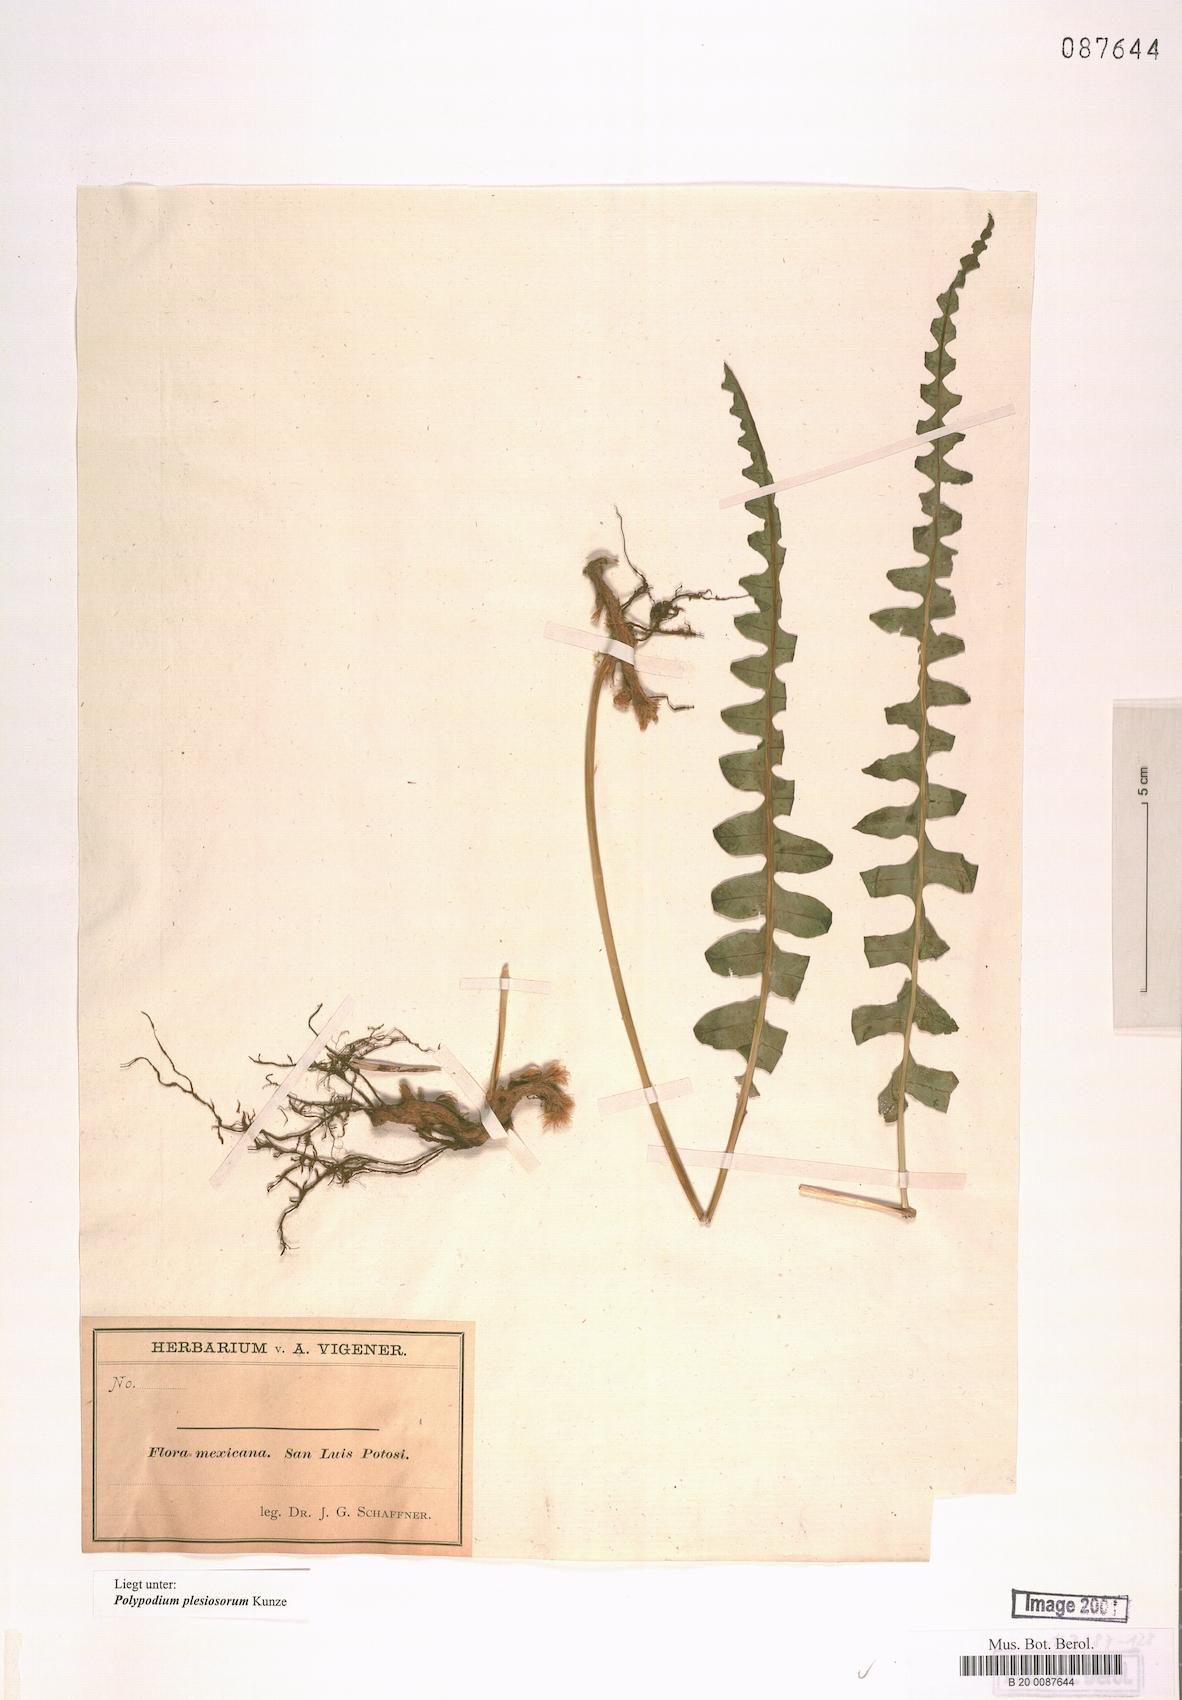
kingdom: Plantae
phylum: Tracheophyta
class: Polypodiopsida
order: Polypodiales
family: Polypodiaceae
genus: Polypodium
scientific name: Polypodium plesiosorum
